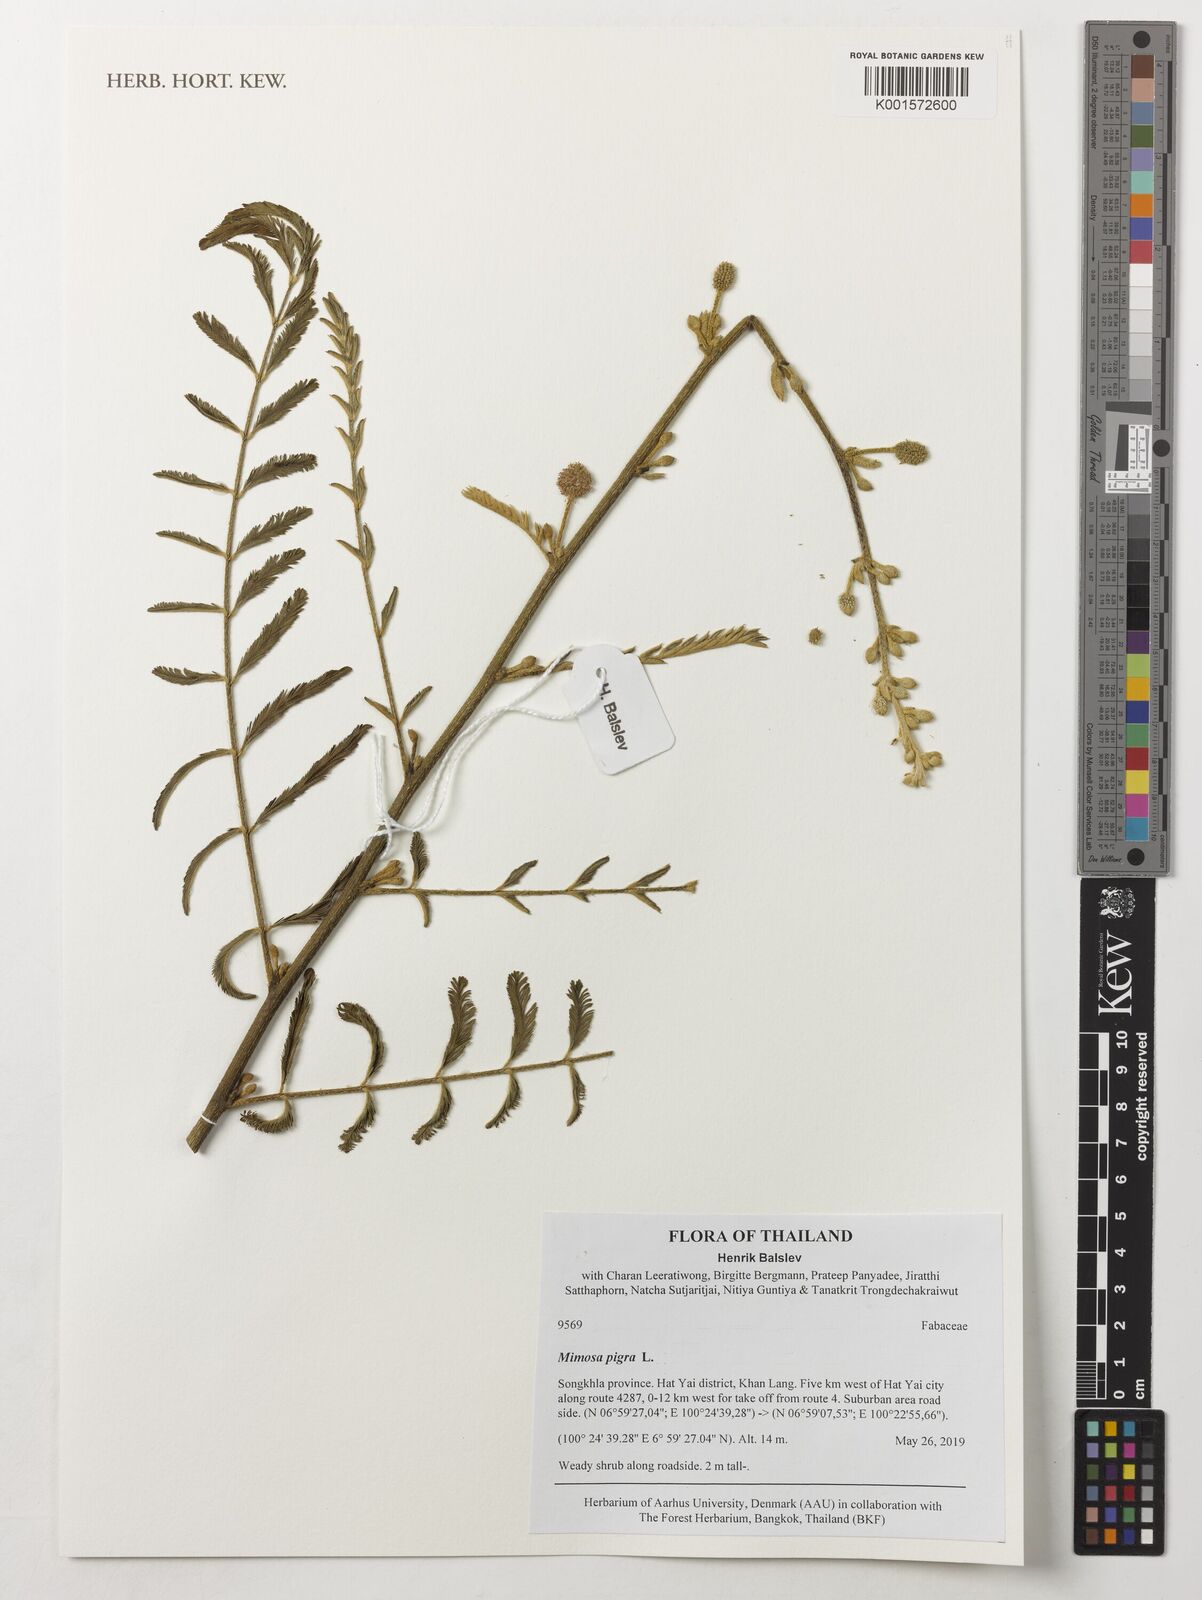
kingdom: Plantae
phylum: Tracheophyta
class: Magnoliopsida
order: Fabales
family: Fabaceae
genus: Mimosa
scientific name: Mimosa pigra
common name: Black mimosa
